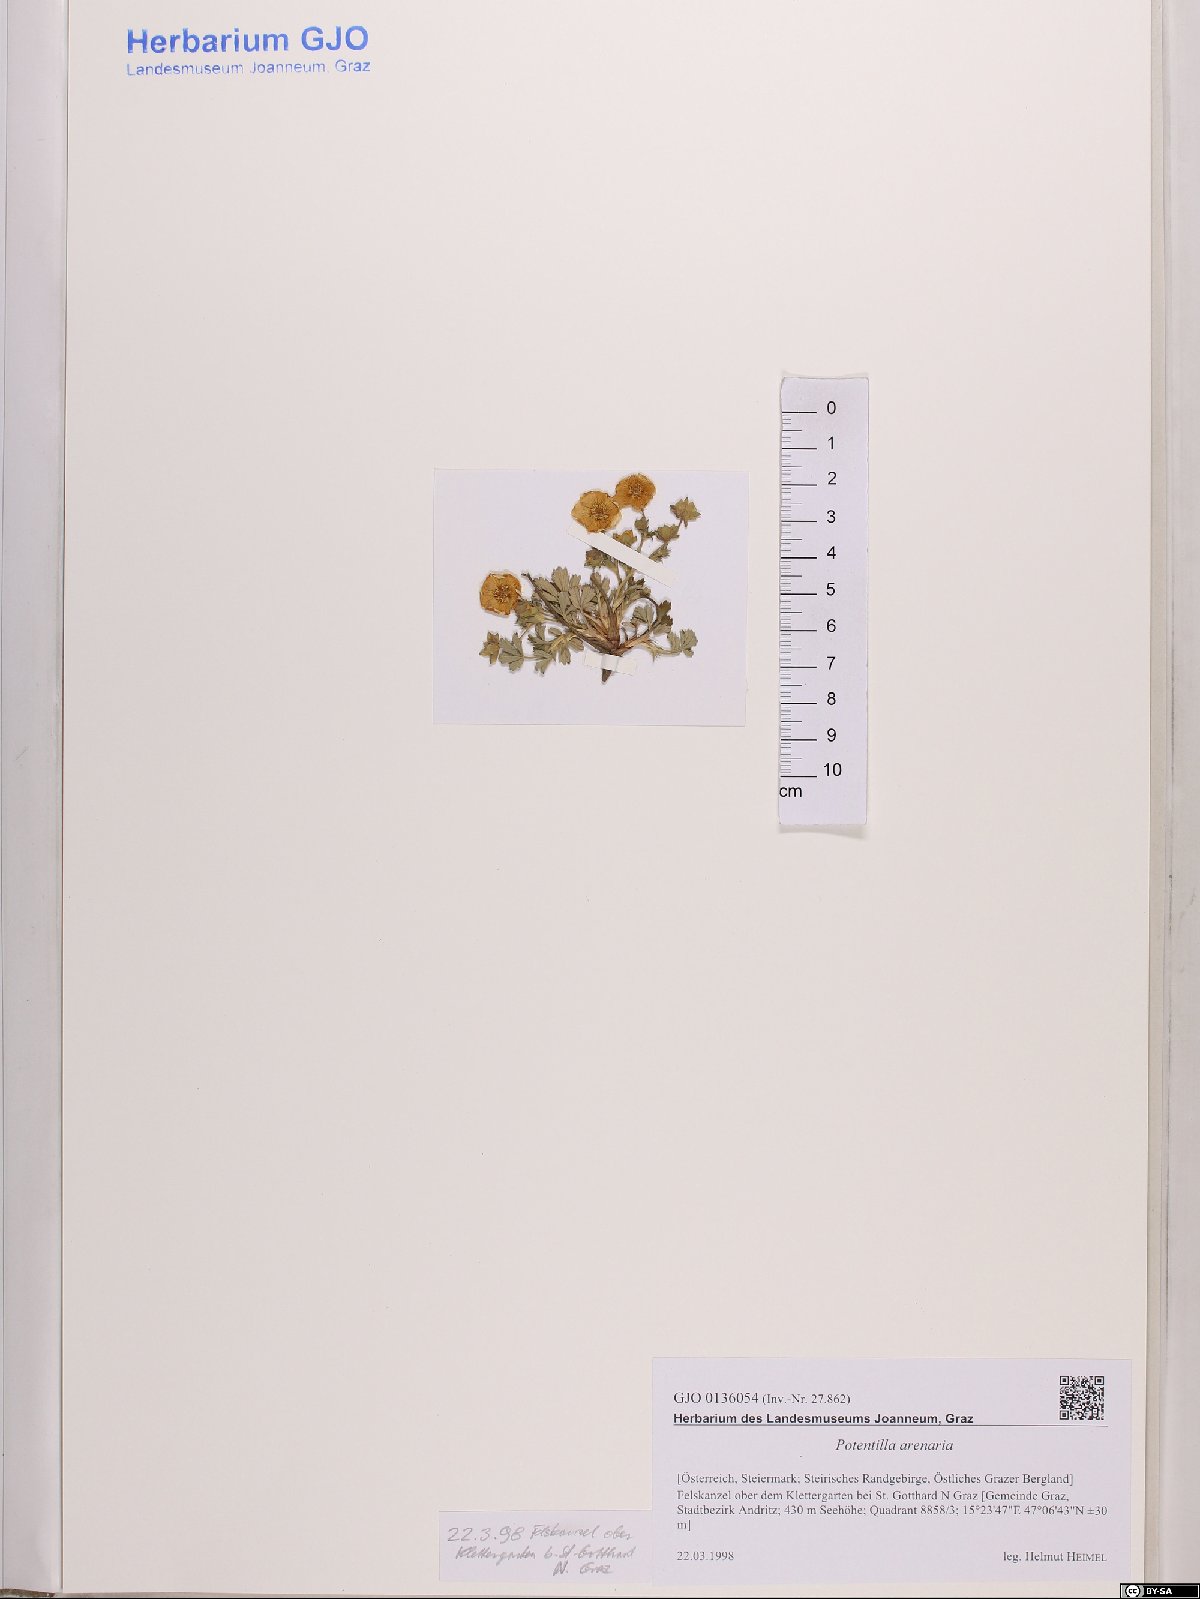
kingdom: Plantae
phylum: Tracheophyta
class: Magnoliopsida
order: Rosales
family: Rosaceae
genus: Potentilla
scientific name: Potentilla cinerea
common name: Ashy cinquefoil
